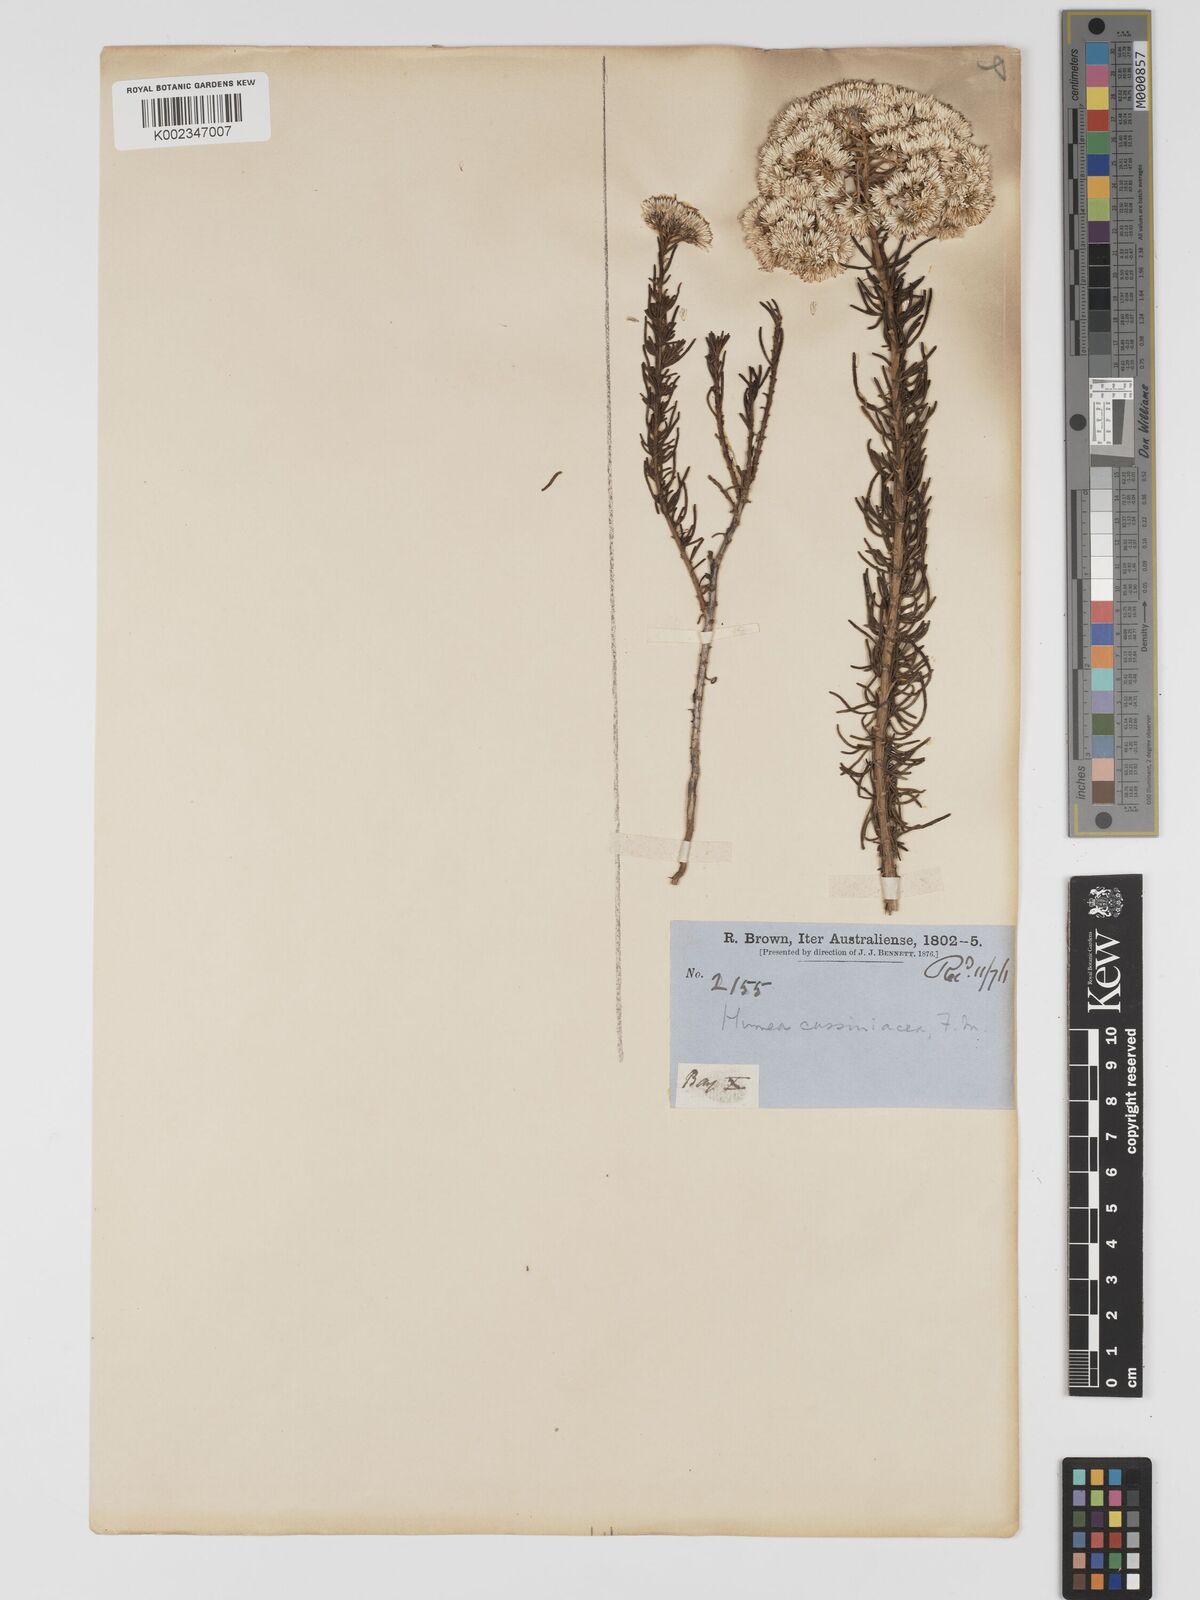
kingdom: Plantae
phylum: Tracheophyta
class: Magnoliopsida
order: Asterales
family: Asteraceae
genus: Haeckeria
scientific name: Haeckeria cassiniiformis
